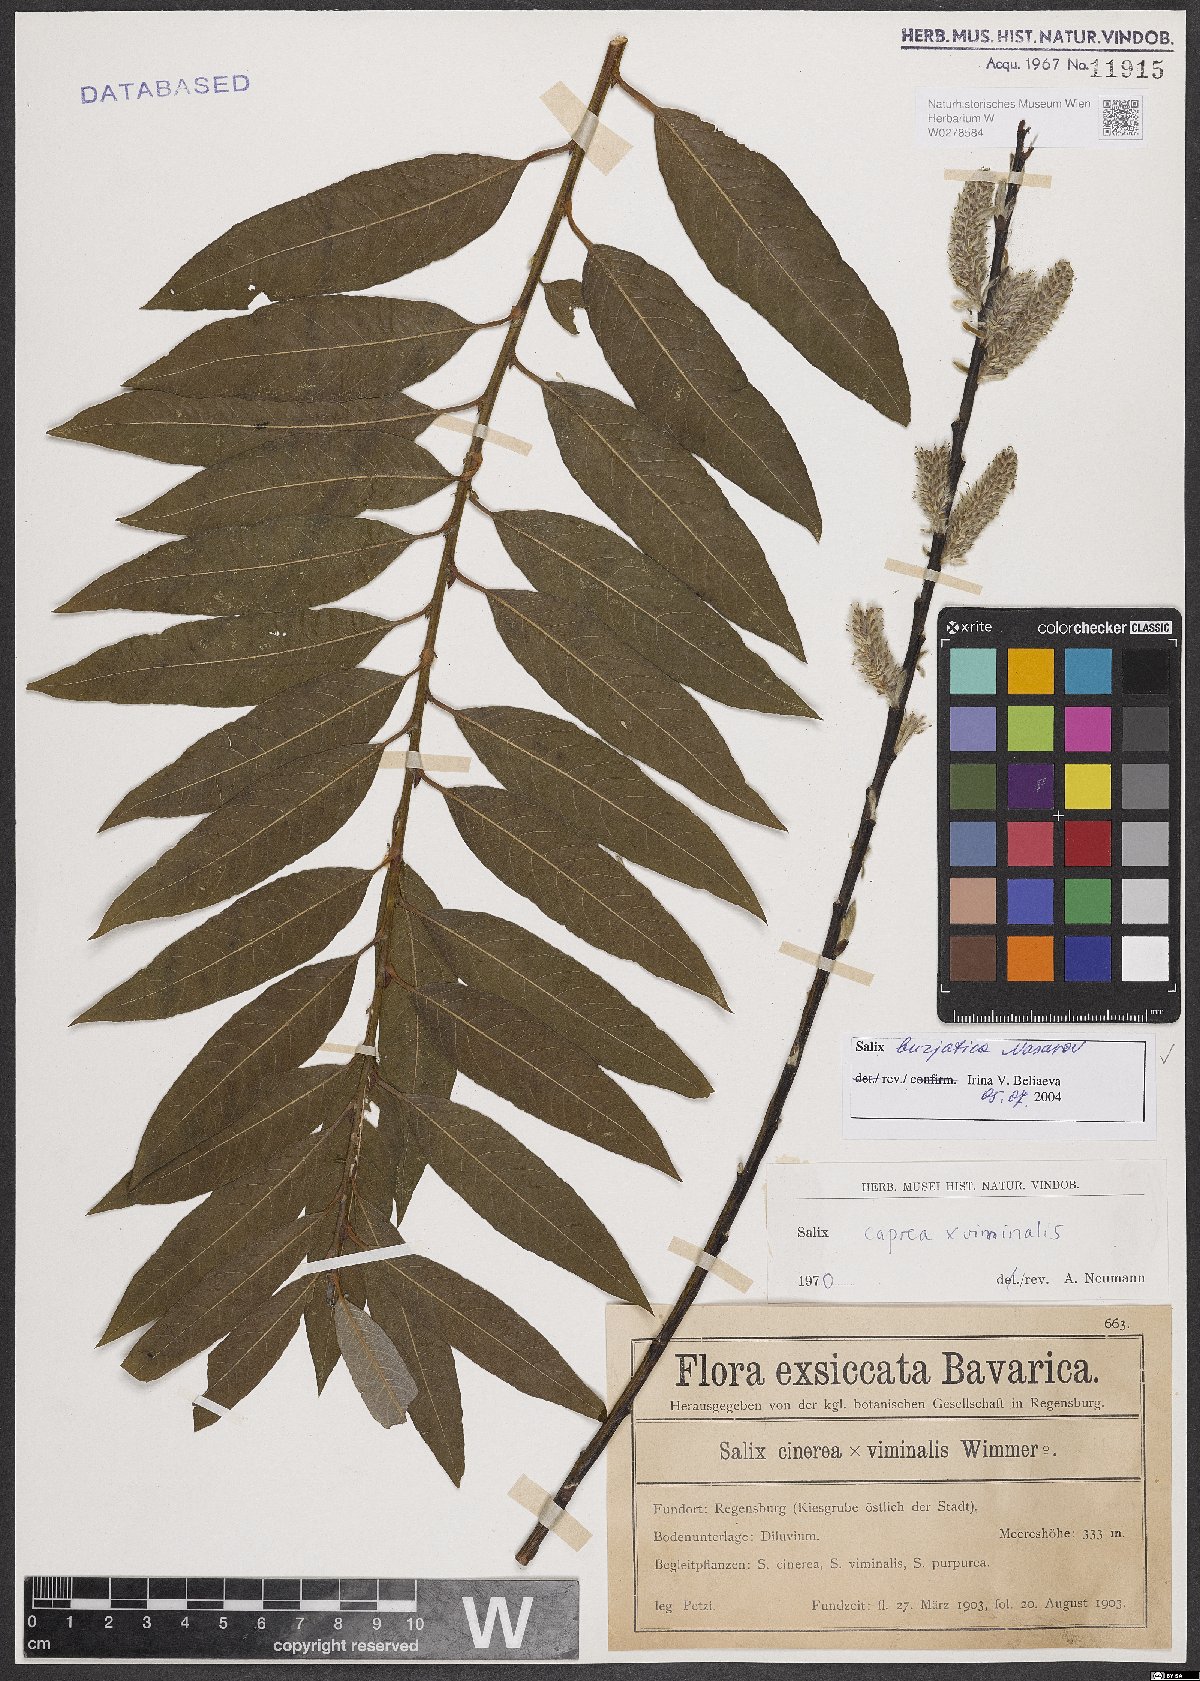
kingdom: Plantae
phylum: Tracheophyta
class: Magnoliopsida
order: Malpighiales
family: Salicaceae
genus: Salix
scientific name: Salix gmelinii
